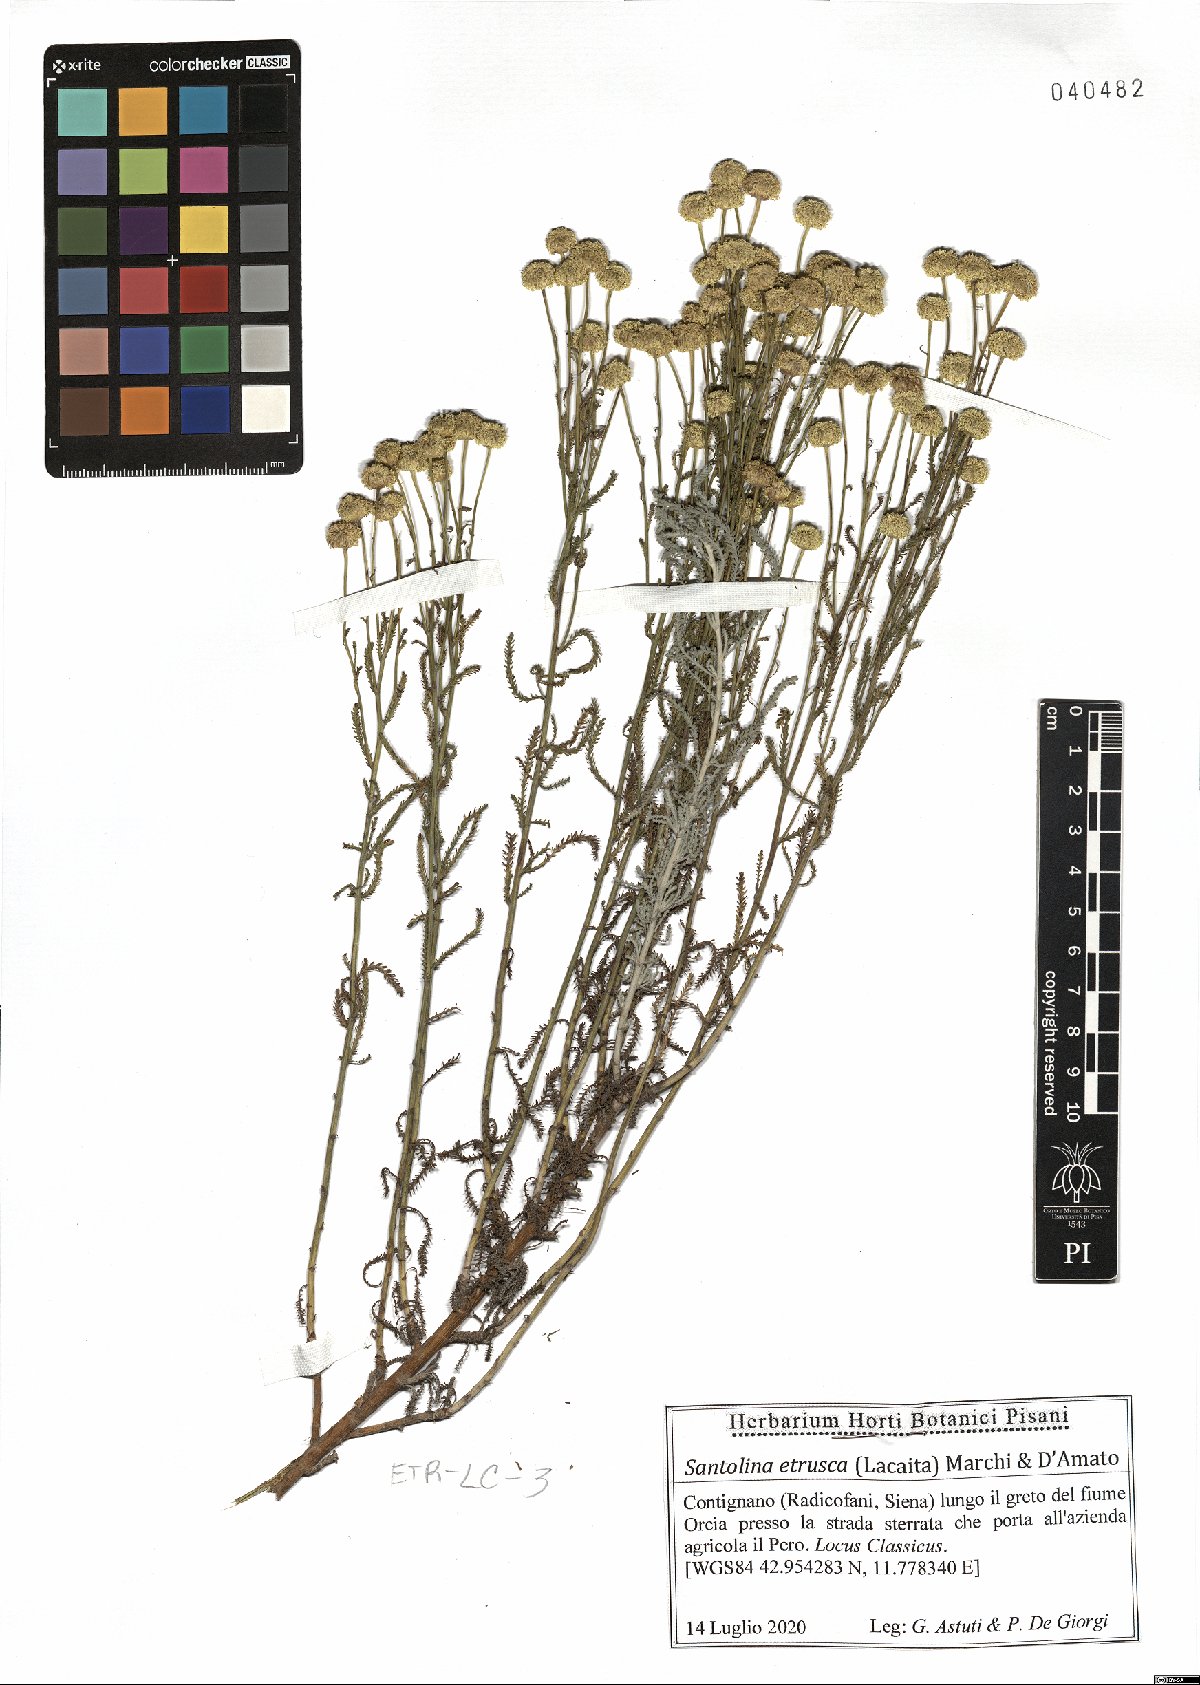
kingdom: Plantae
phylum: Tracheophyta
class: Magnoliopsida
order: Asterales
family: Asteraceae
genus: Santolina
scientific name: Santolina etrusca
